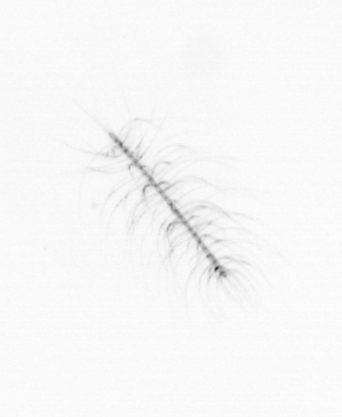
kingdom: Chromista
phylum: Ochrophyta
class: Bacillariophyceae
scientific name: Bacillariophyceae
